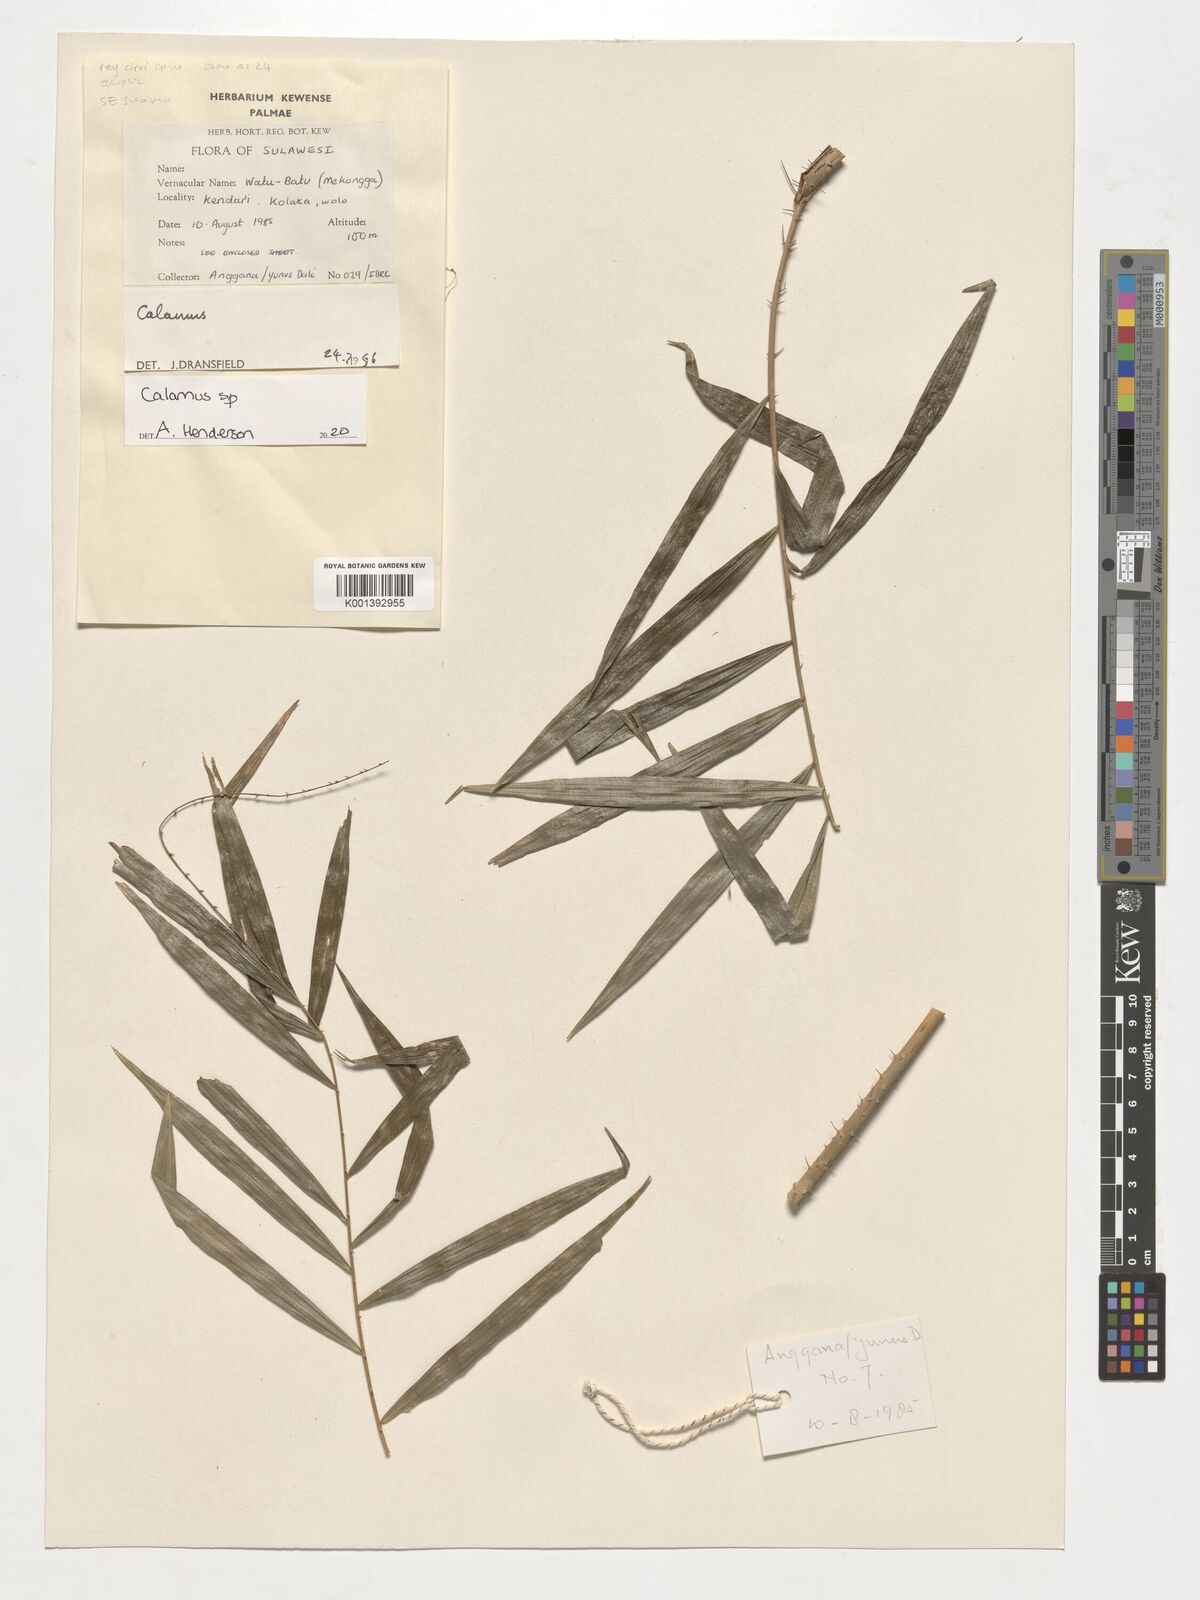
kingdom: Plantae
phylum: Tracheophyta
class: Liliopsida
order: Arecales
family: Arecaceae
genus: Calamus
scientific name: Calamus
